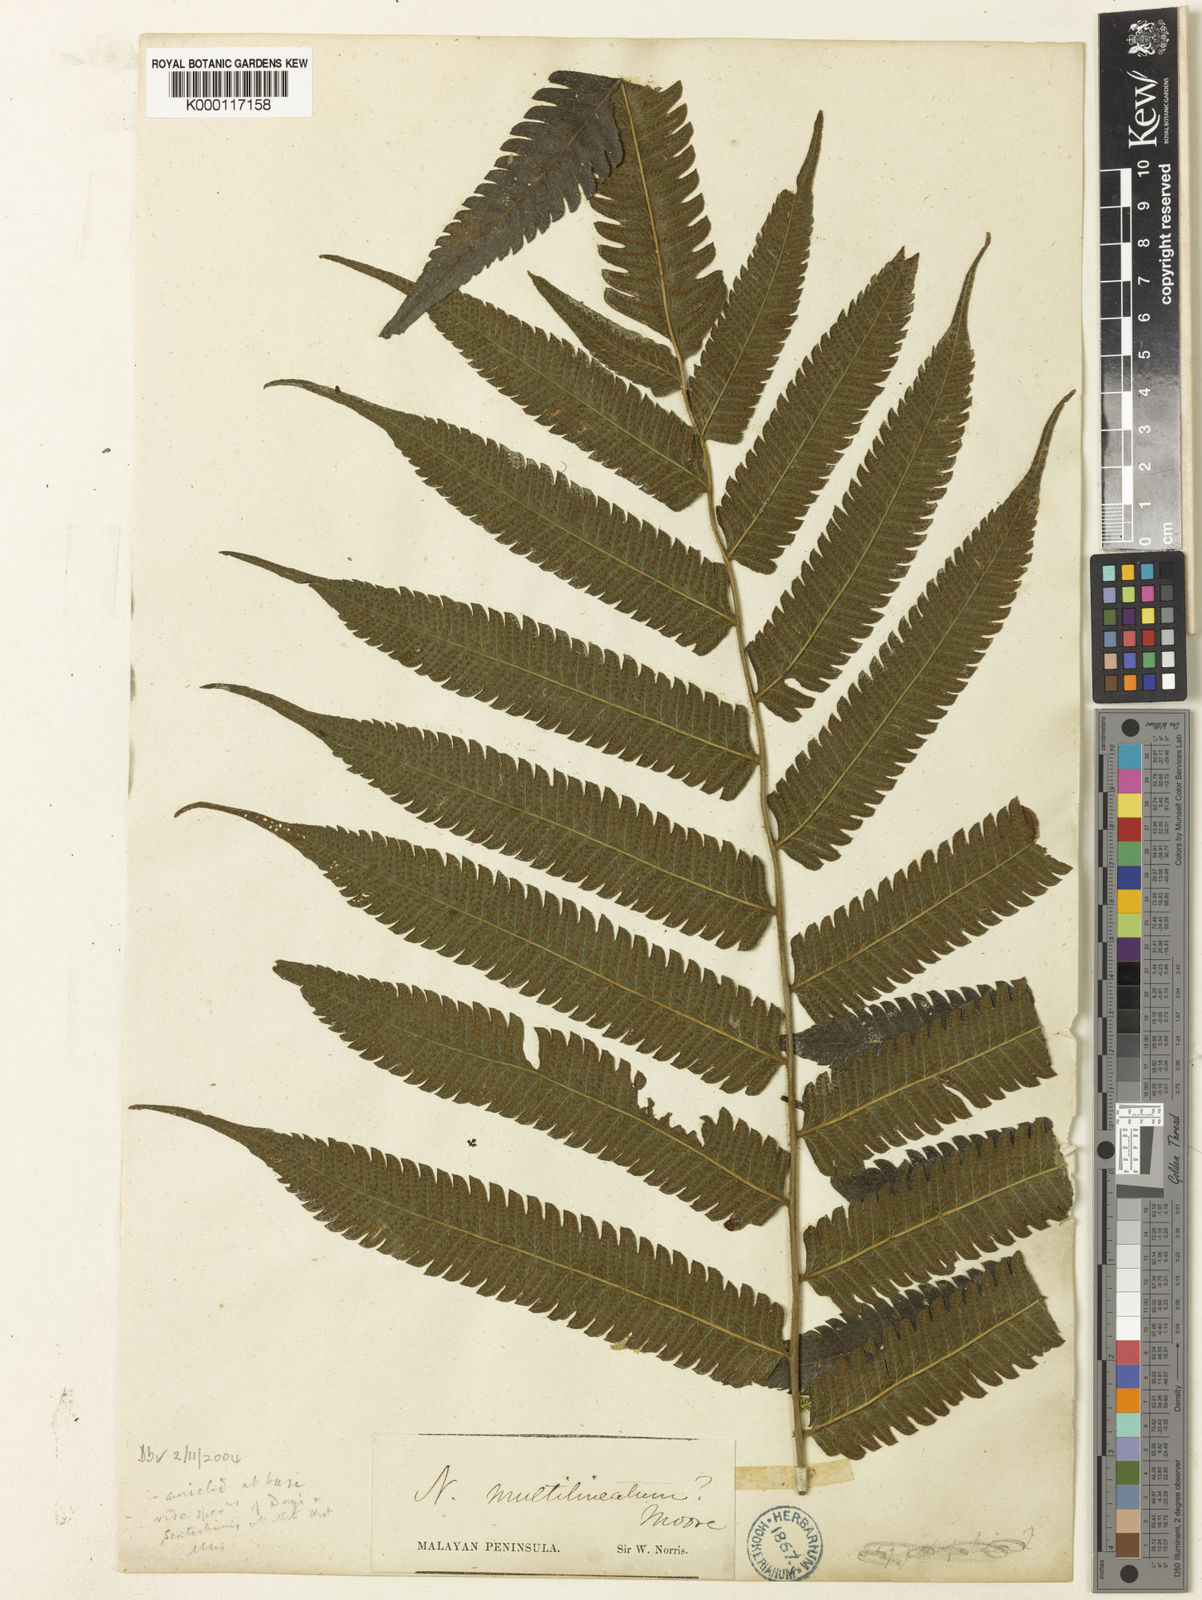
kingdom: Plantae
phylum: Tracheophyta
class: Polypodiopsida
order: Polypodiales
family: Thelypteridaceae
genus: Sphaerostephanos
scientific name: Sphaerostephanos norrisii
